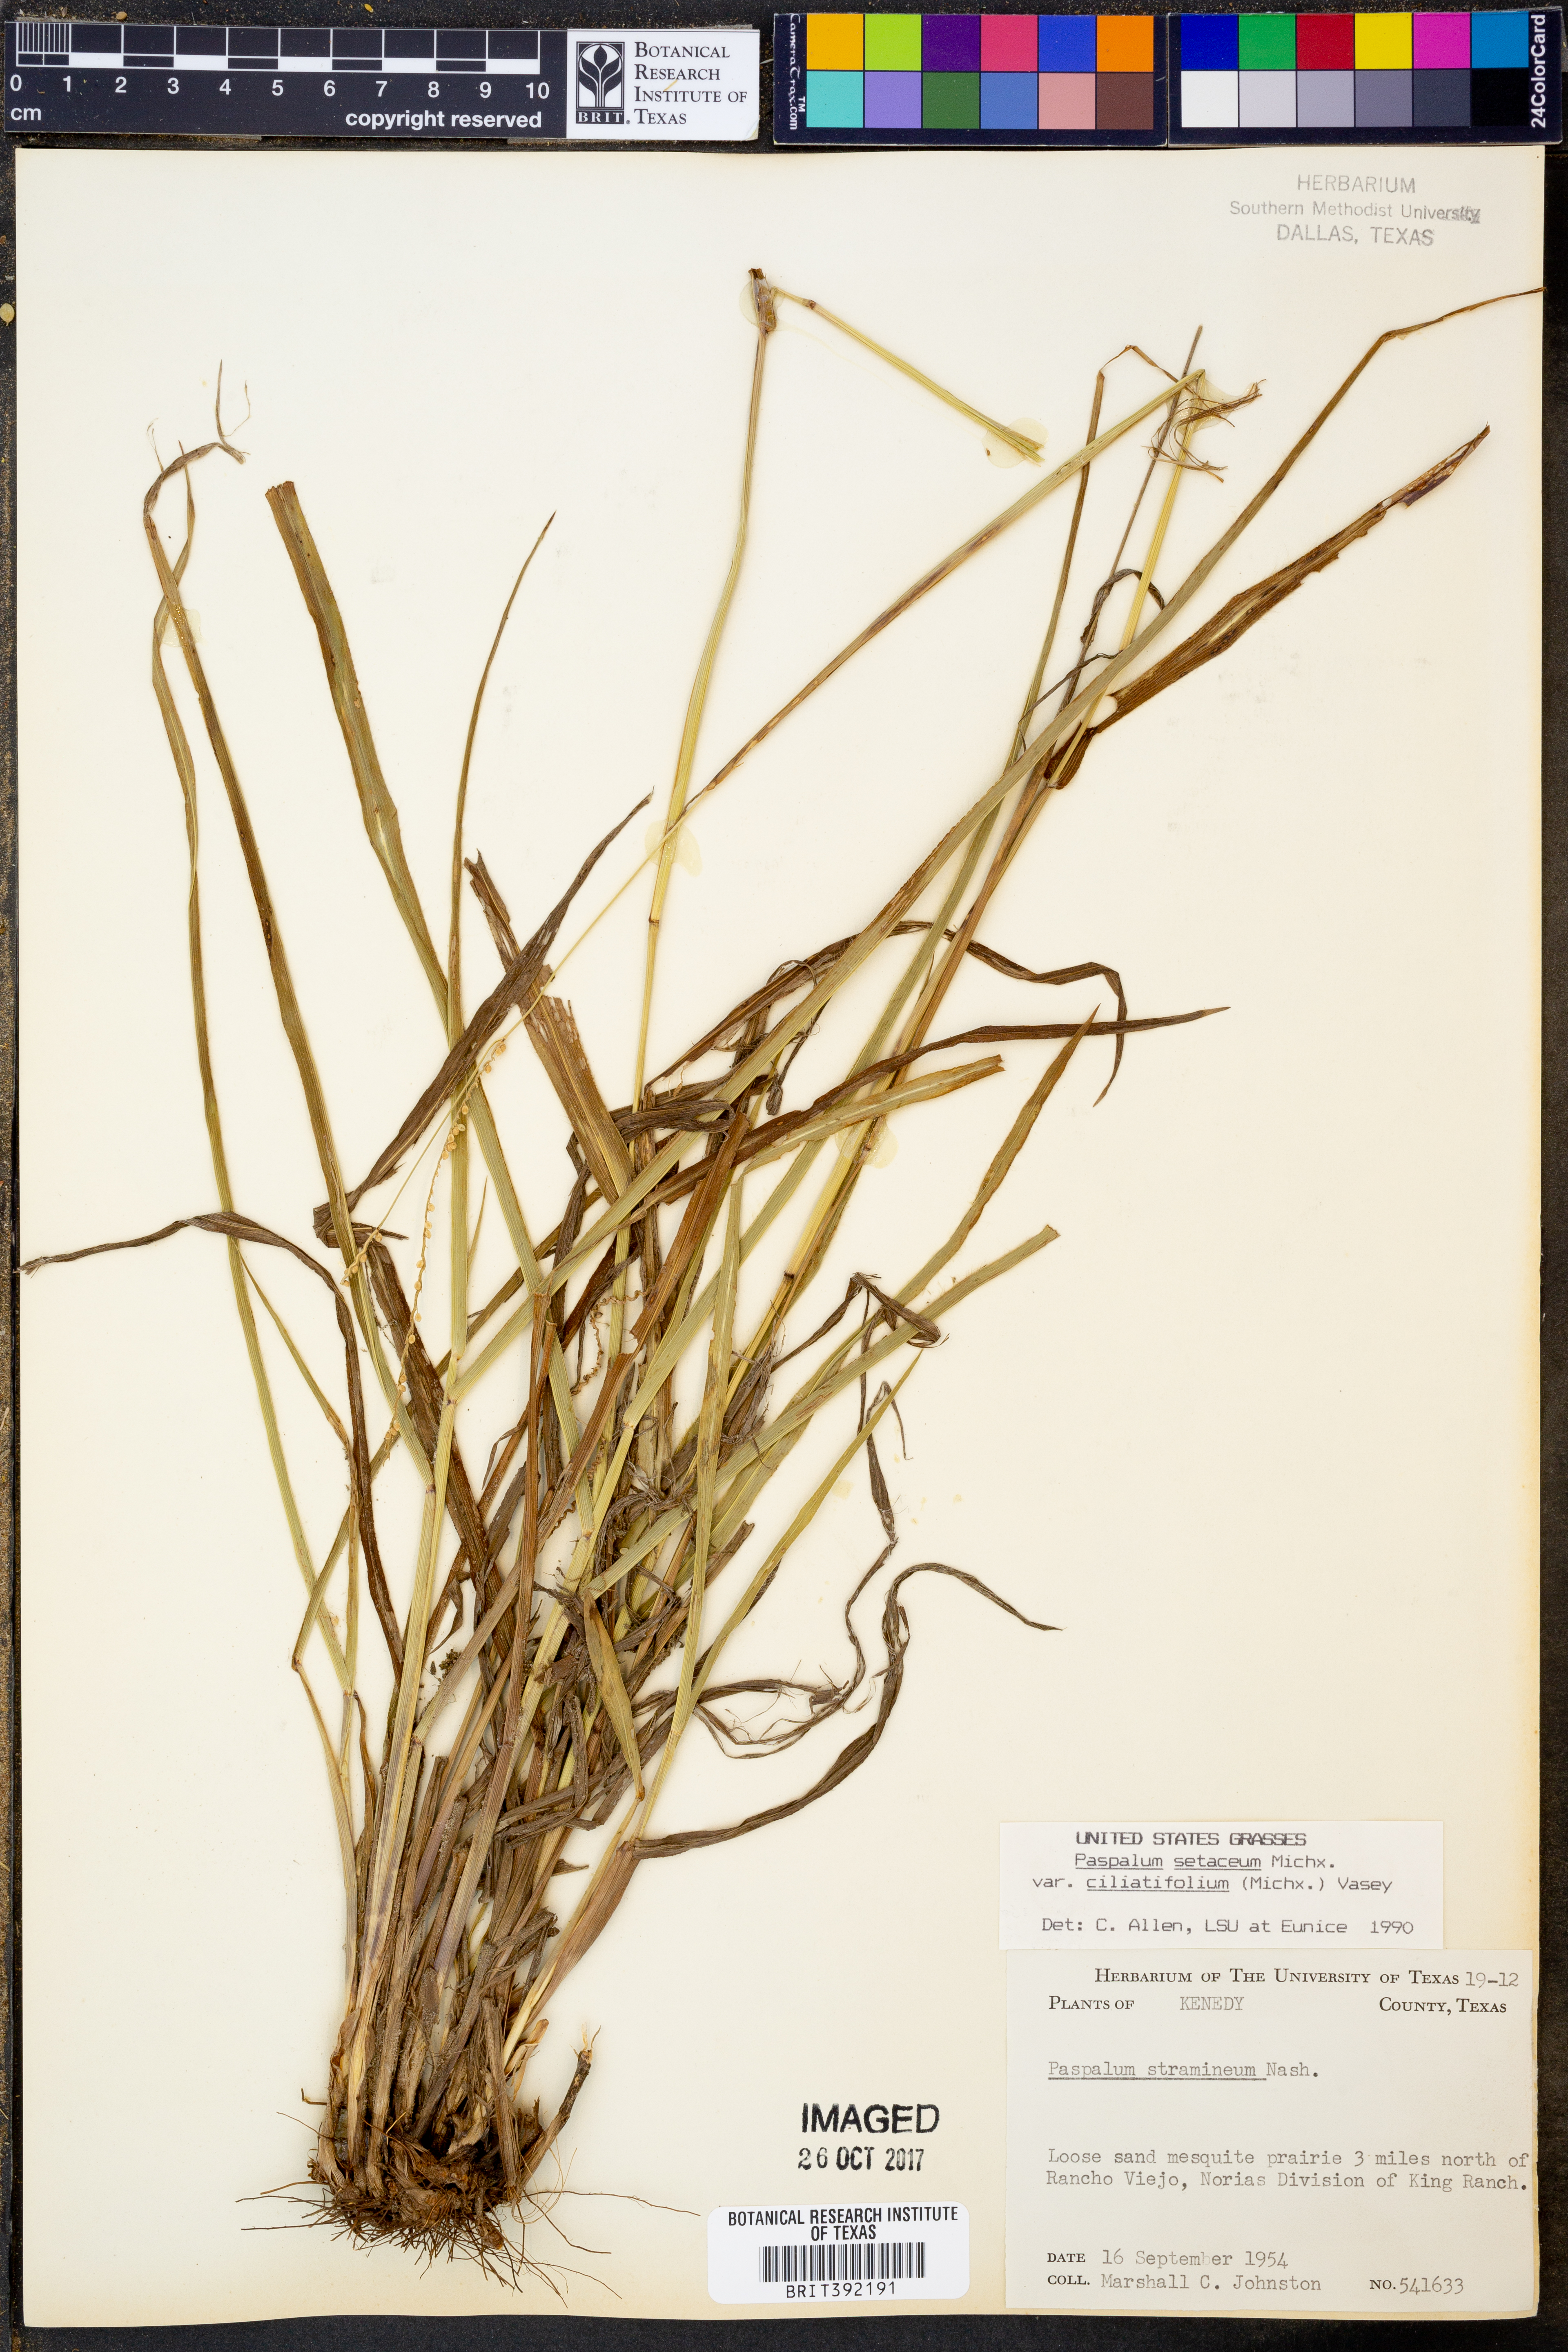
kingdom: Plantae
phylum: Tracheophyta
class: Liliopsida
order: Poales
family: Poaceae
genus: Paspalum
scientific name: Paspalum setaceum
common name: Slender paspalum
